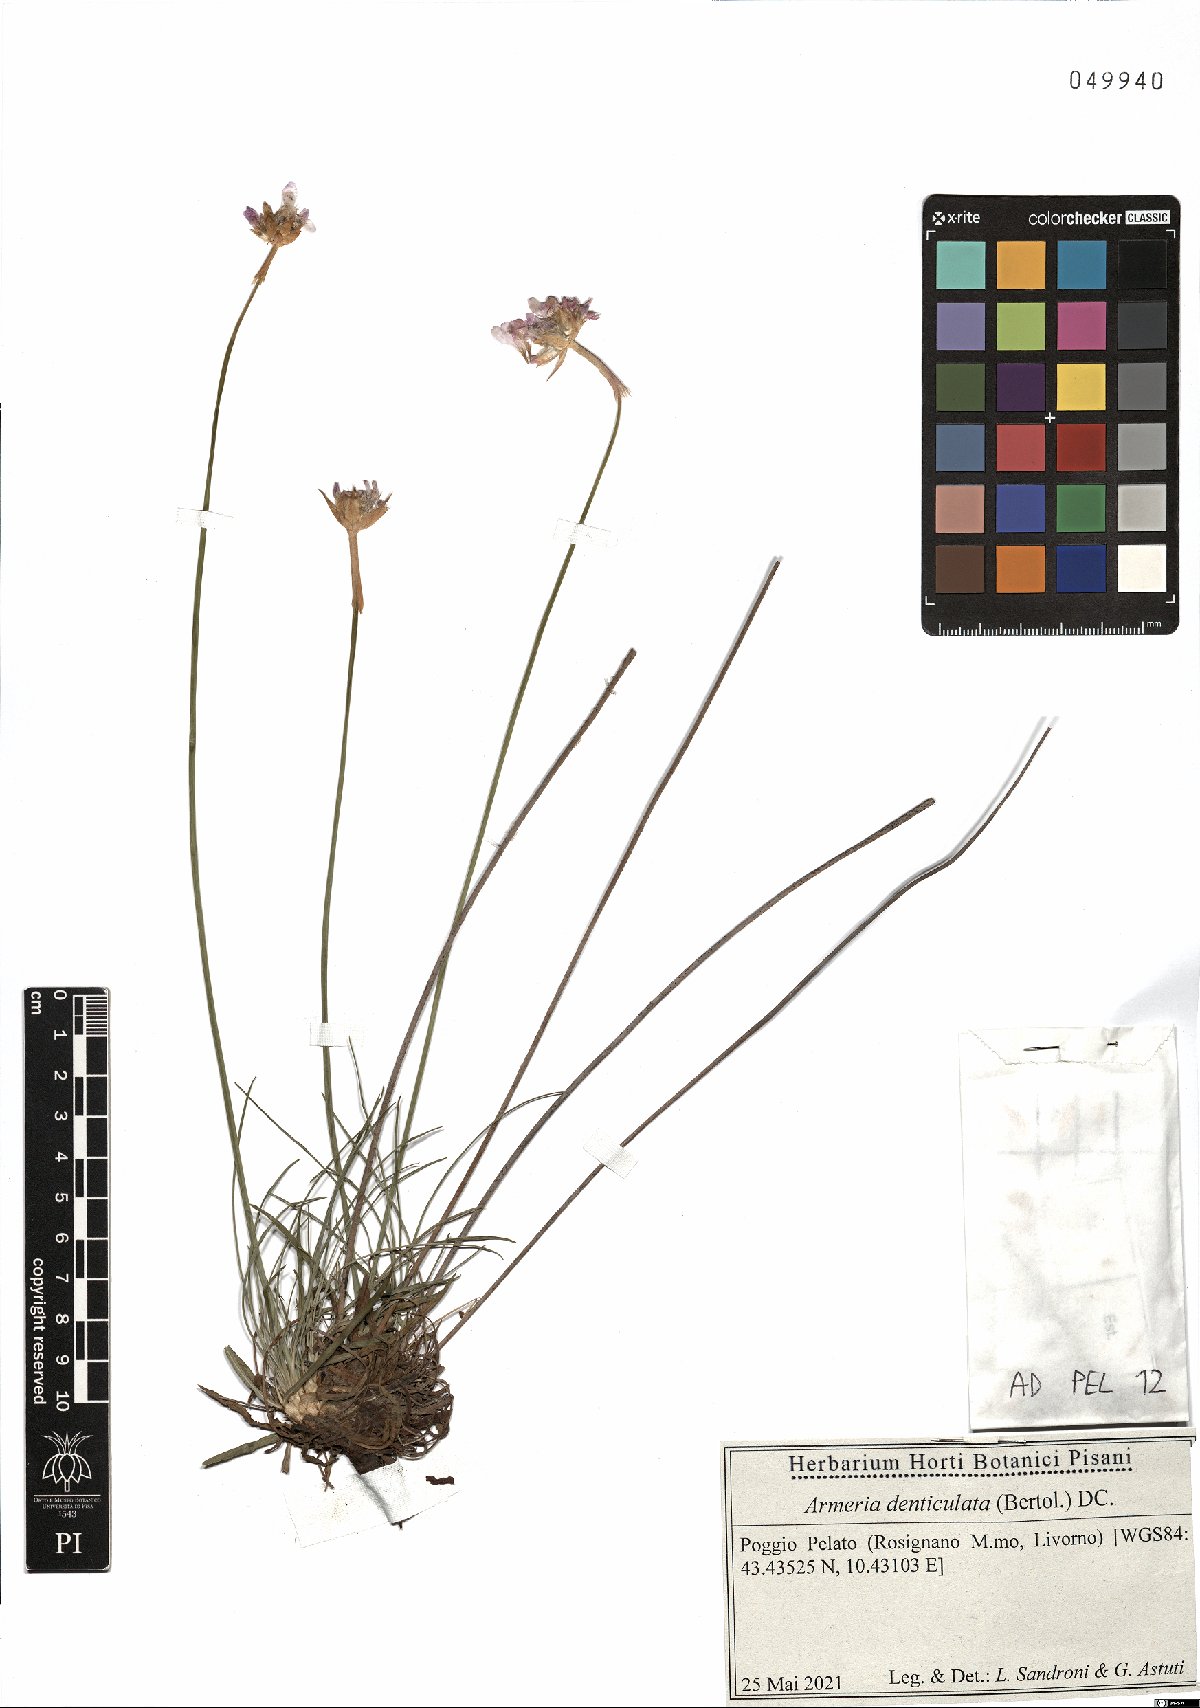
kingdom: Plantae
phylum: Tracheophyta
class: Magnoliopsida
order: Caryophyllales
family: Plumbaginaceae
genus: Armeria
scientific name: Armeria denticulata
